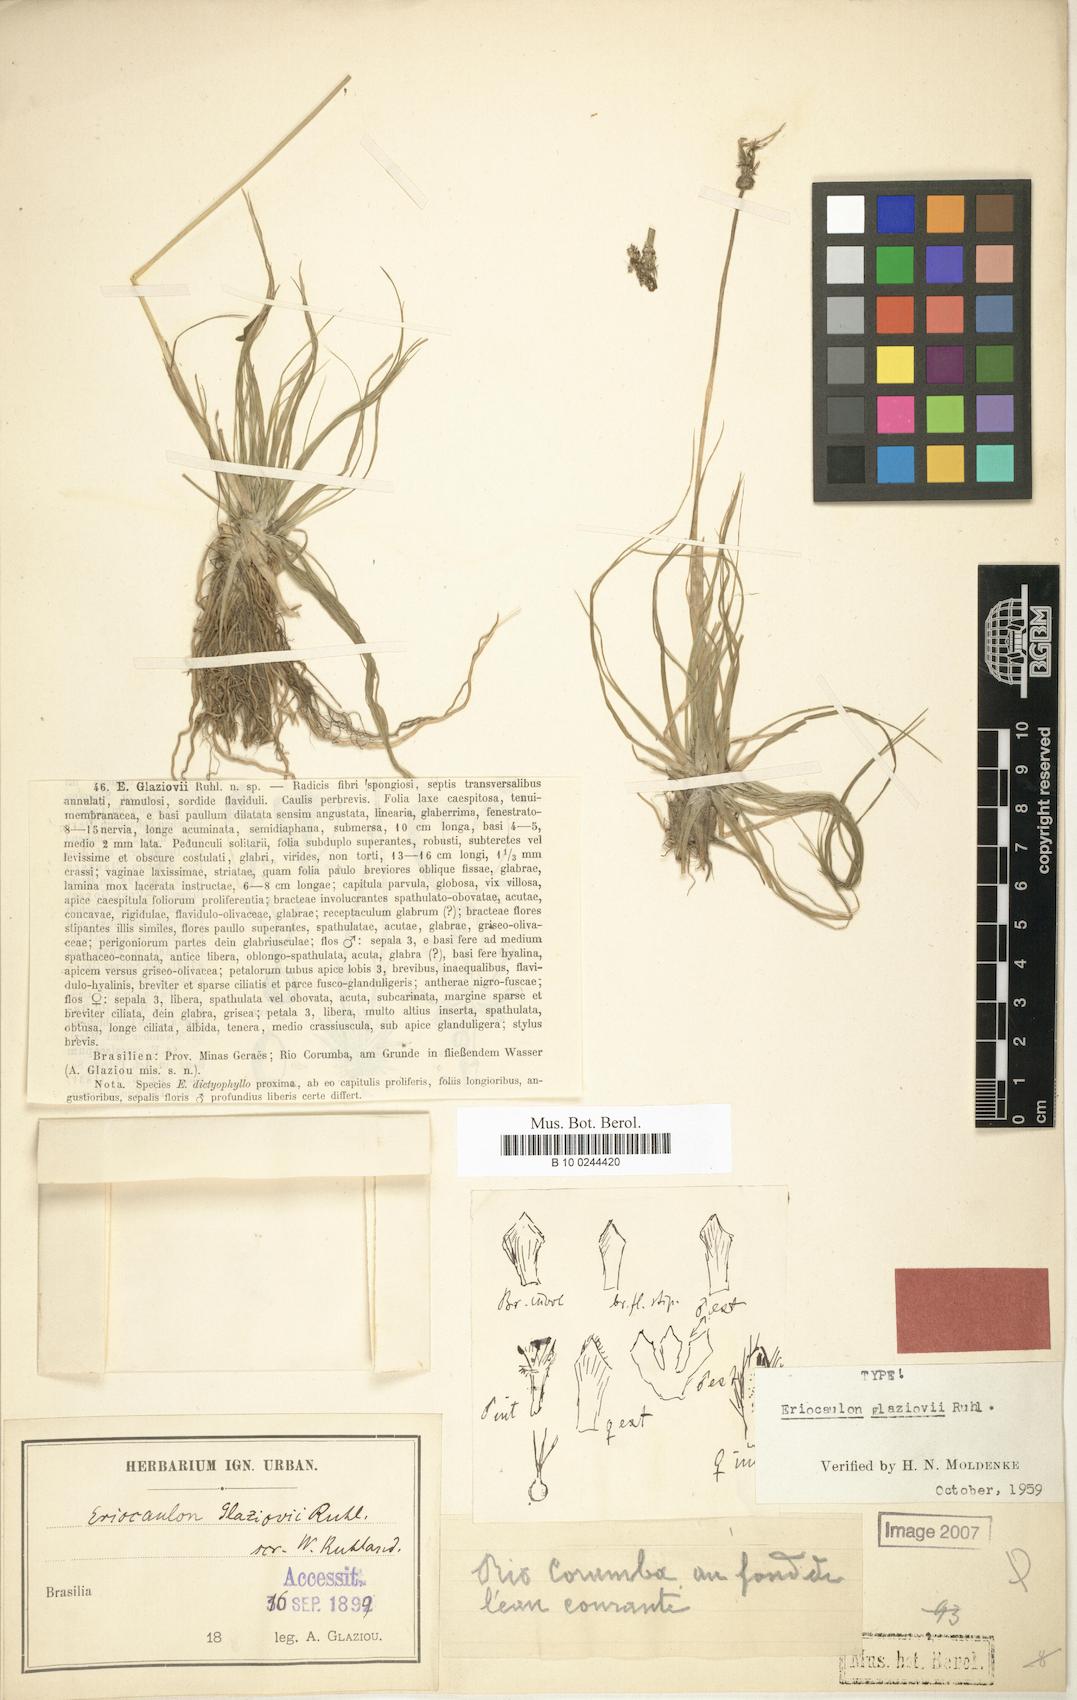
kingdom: Plantae
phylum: Tracheophyta
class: Liliopsida
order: Poales
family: Eriocaulaceae
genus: Eriocaulon
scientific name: Eriocaulon modestum
